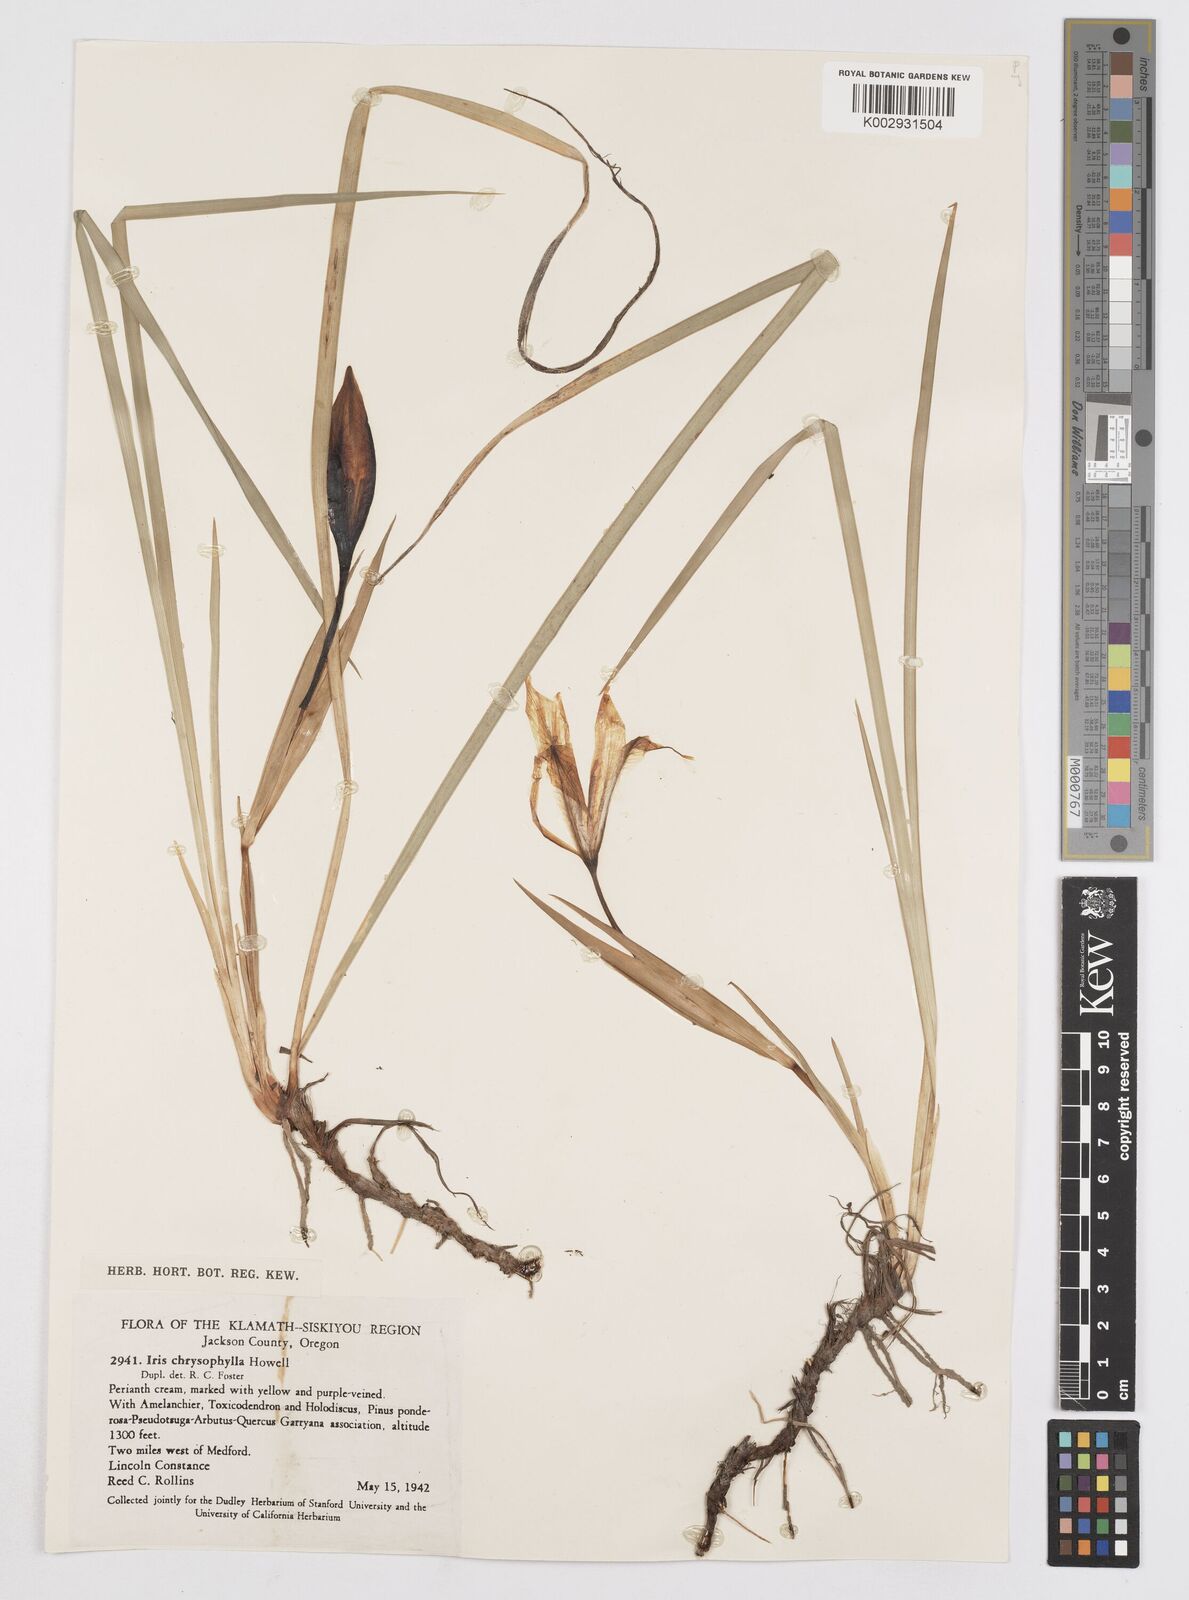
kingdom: Plantae
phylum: Tracheophyta
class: Liliopsida
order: Asparagales
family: Iridaceae
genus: Iris
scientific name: Iris chrysophylla
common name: Yellow-leaf iris
